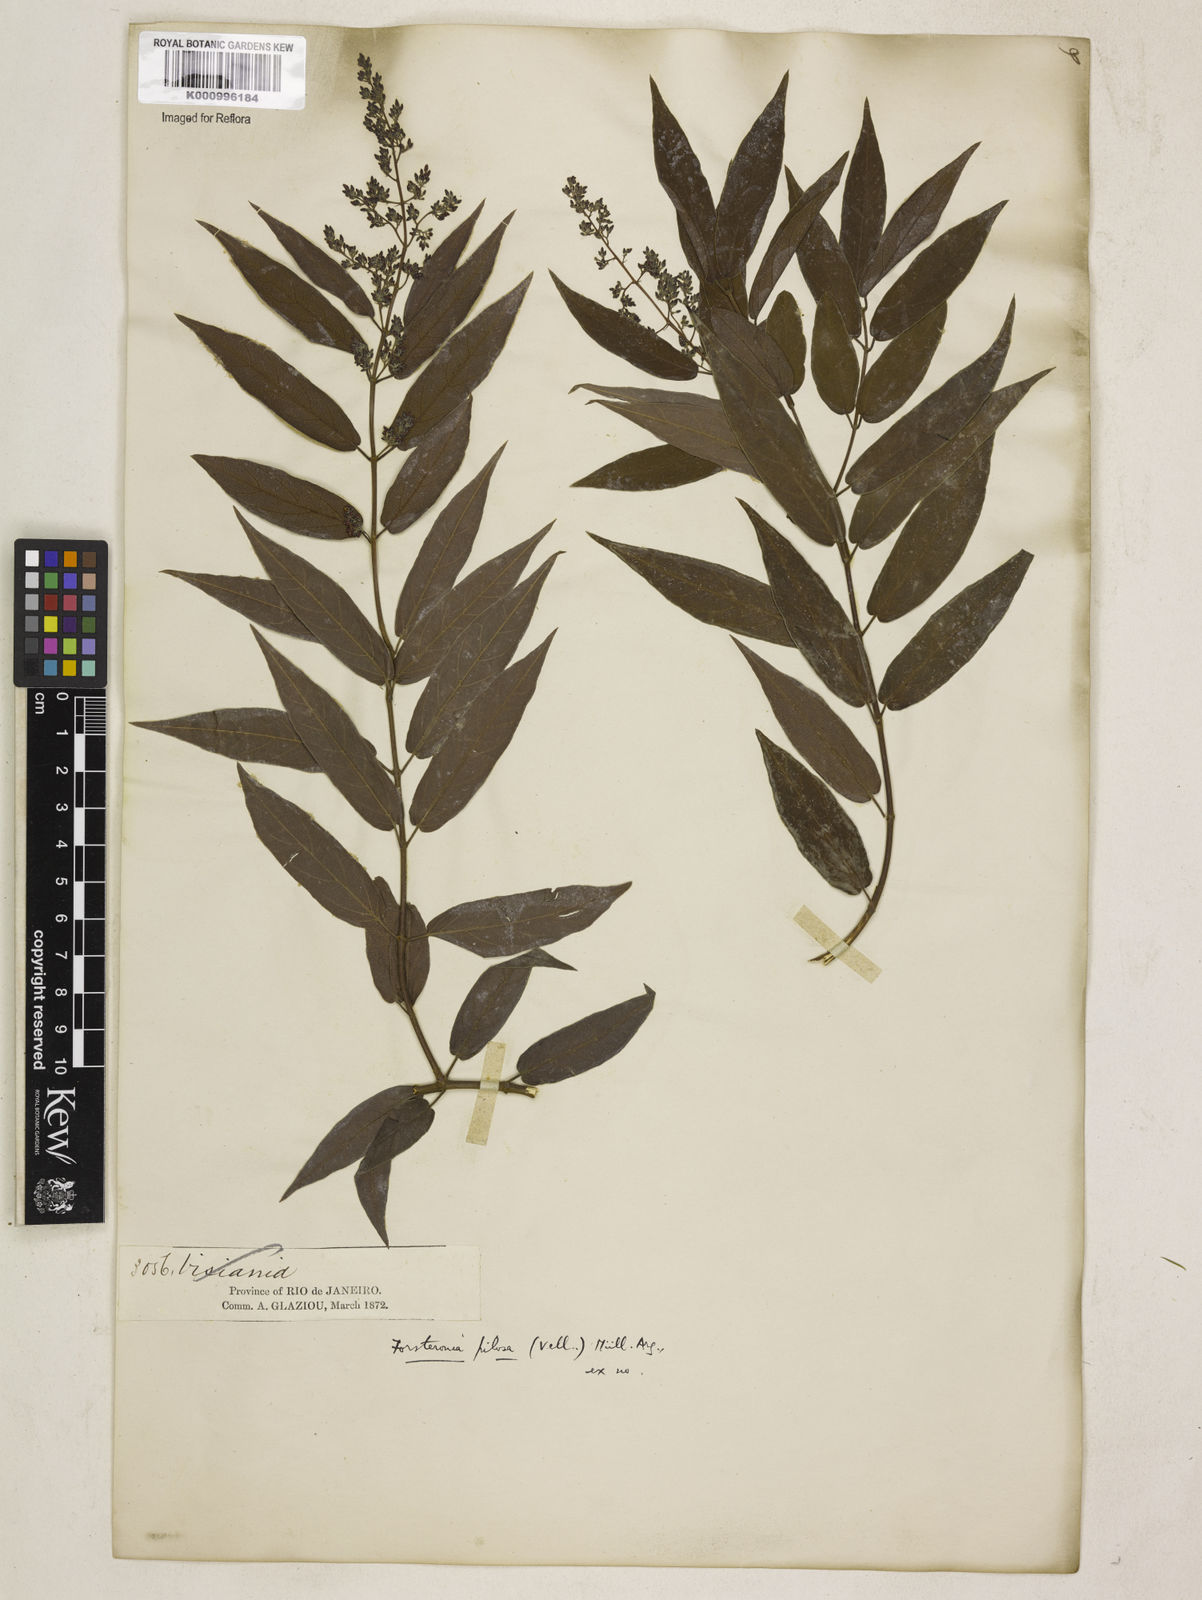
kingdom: Plantae
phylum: Tracheophyta
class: Magnoliopsida
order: Gentianales
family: Apocynaceae
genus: Forsteronia
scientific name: Forsteronia
